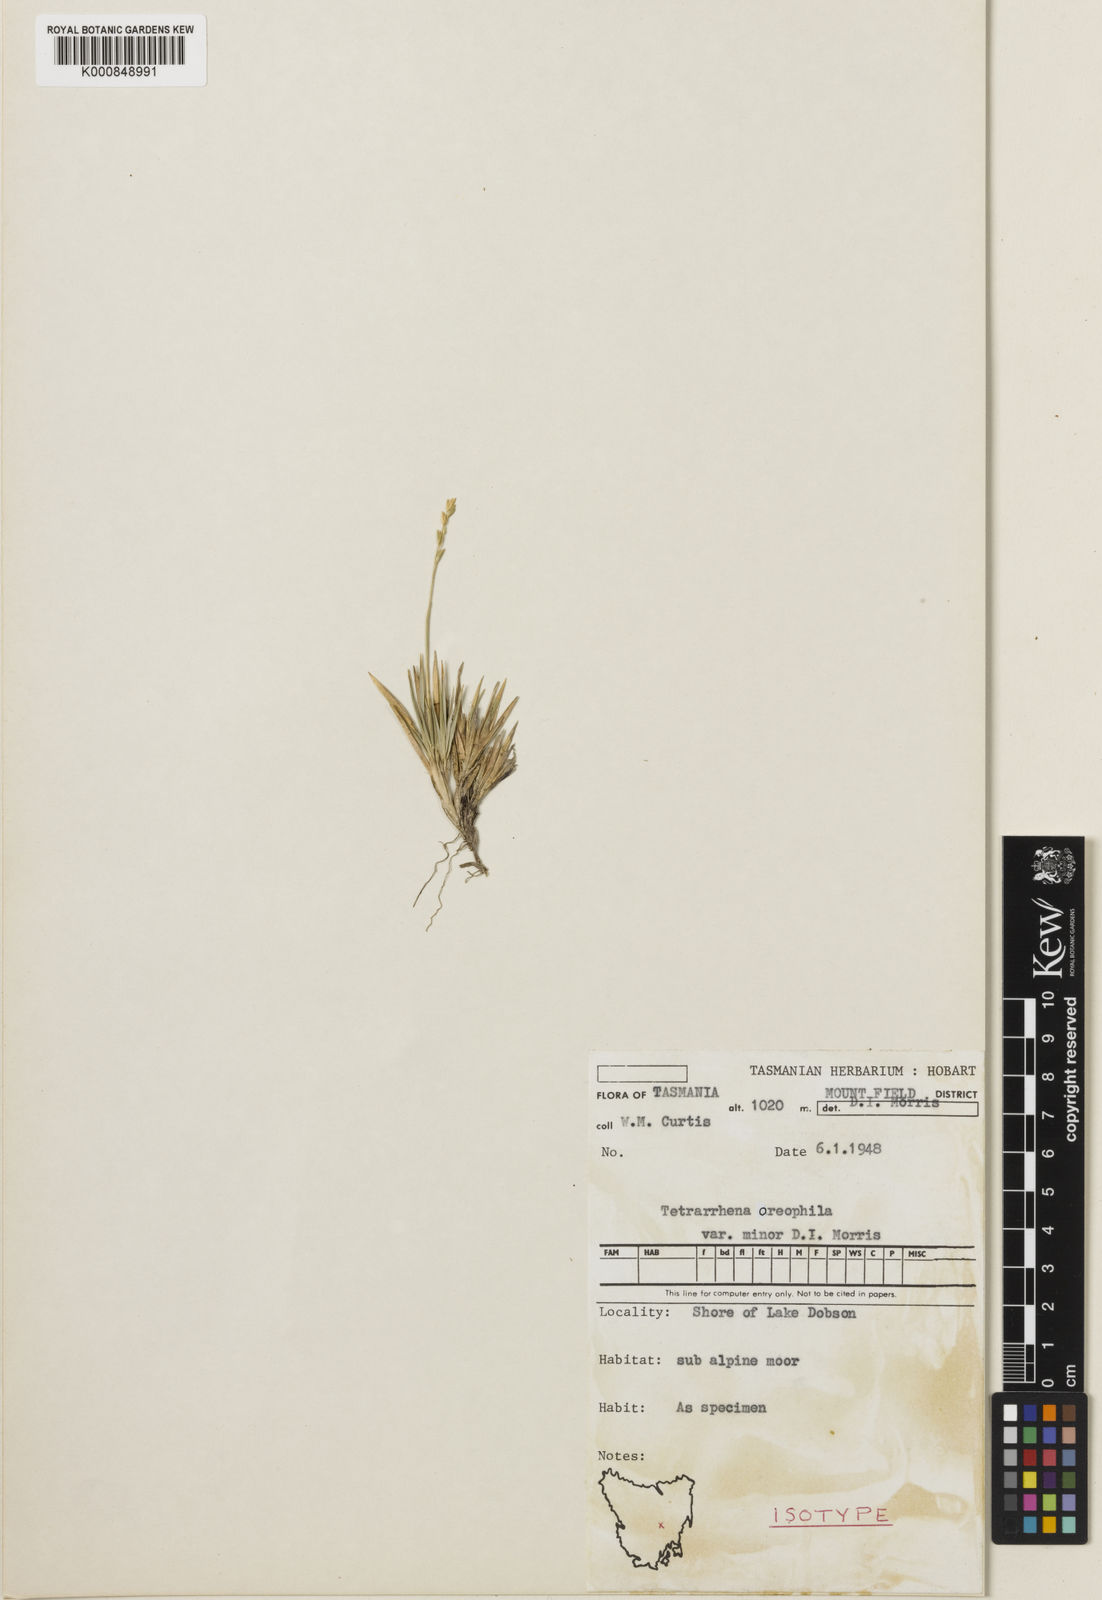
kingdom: Plantae
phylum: Tracheophyta
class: Liliopsida
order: Poales
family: Poaceae
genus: Tetrarrhena
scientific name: Tetrarrhena oreophila
